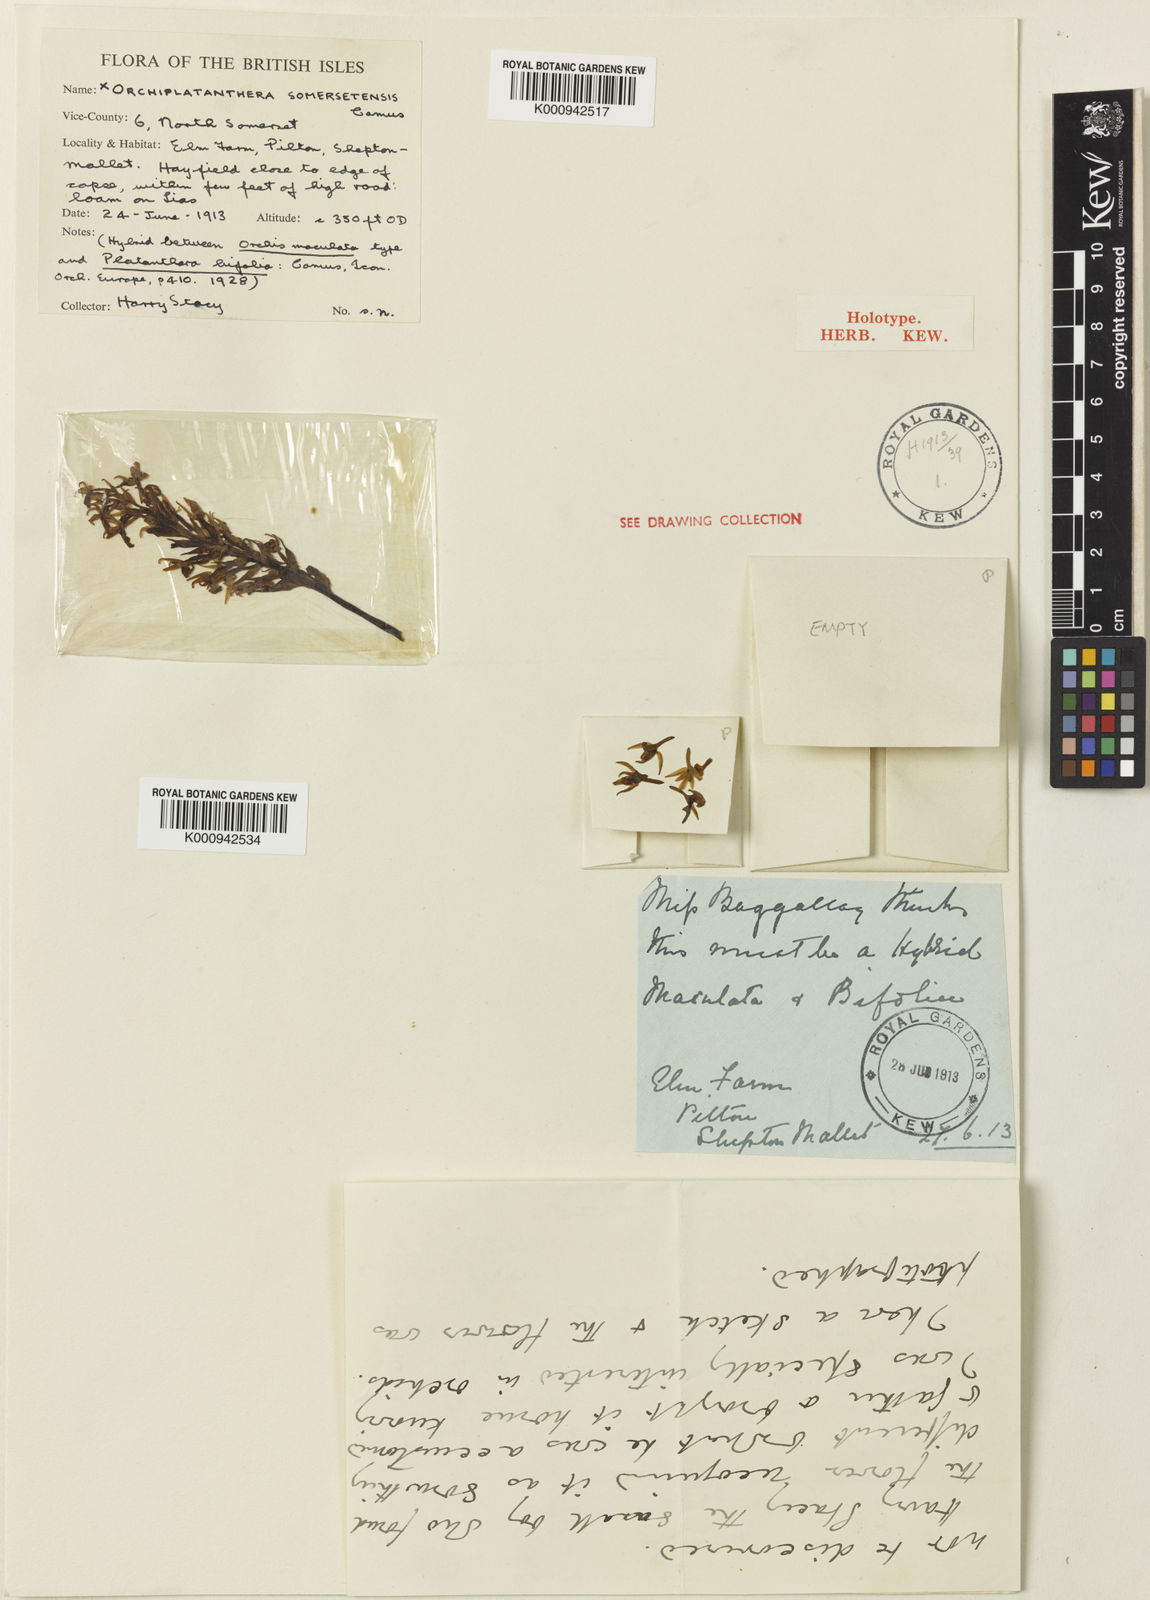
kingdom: Plantae
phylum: Tracheophyta
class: Liliopsida
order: Asparagales
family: Orchidaceae
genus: Dactylanthera
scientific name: Dactylanthera
